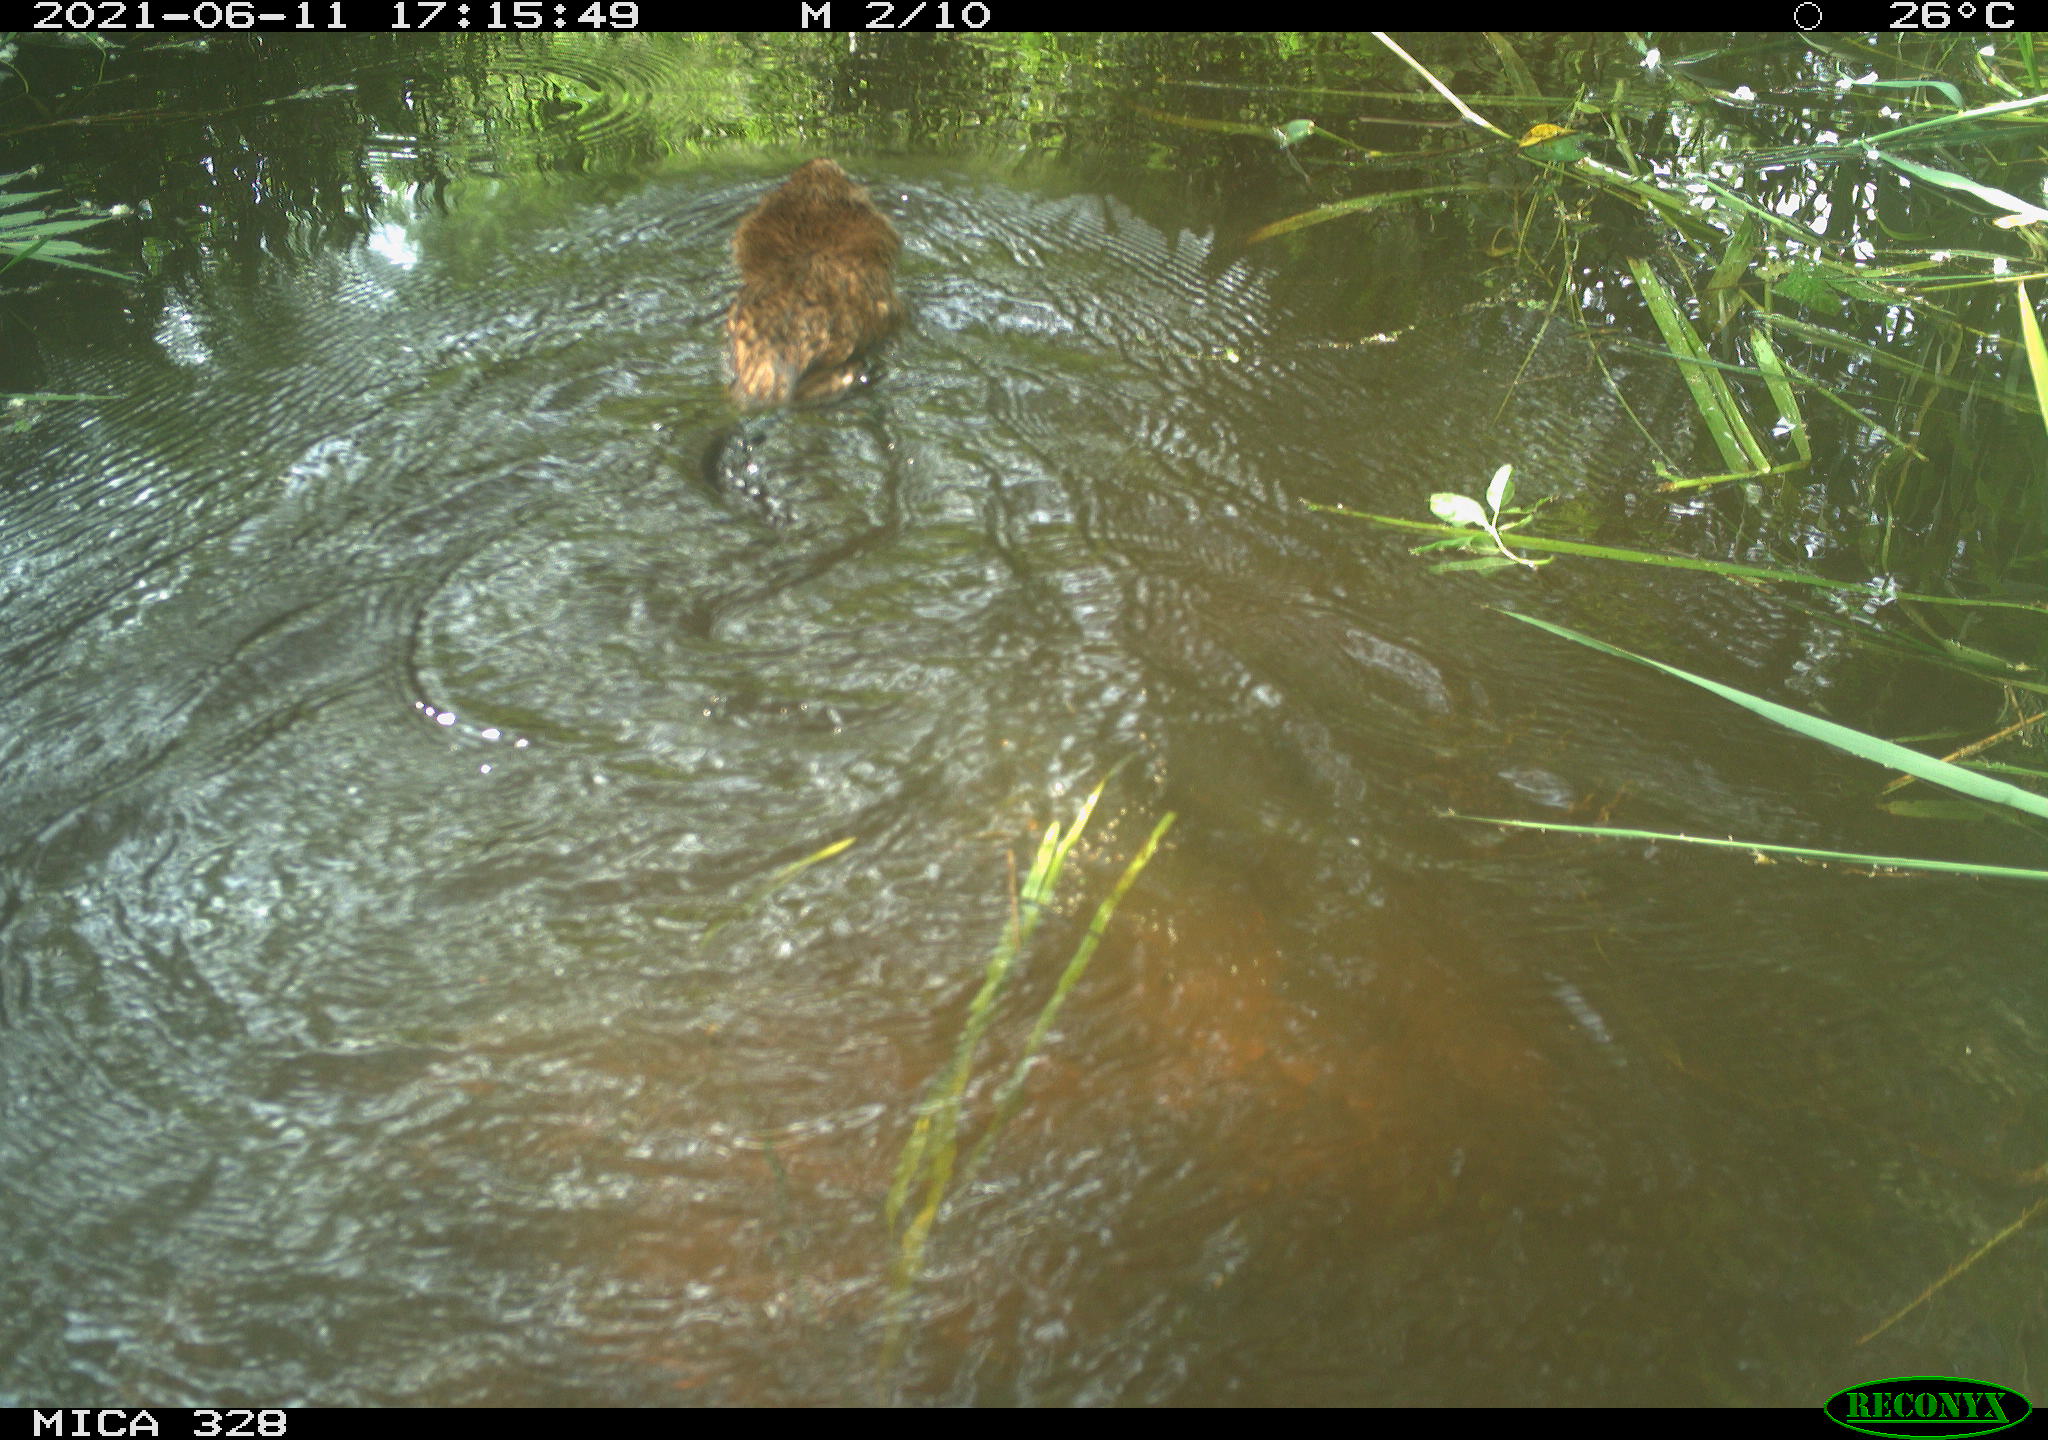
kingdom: Animalia
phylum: Chordata
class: Mammalia
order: Rodentia
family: Cricetidae
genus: Ondatra
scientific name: Ondatra zibethicus
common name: Muskrat
